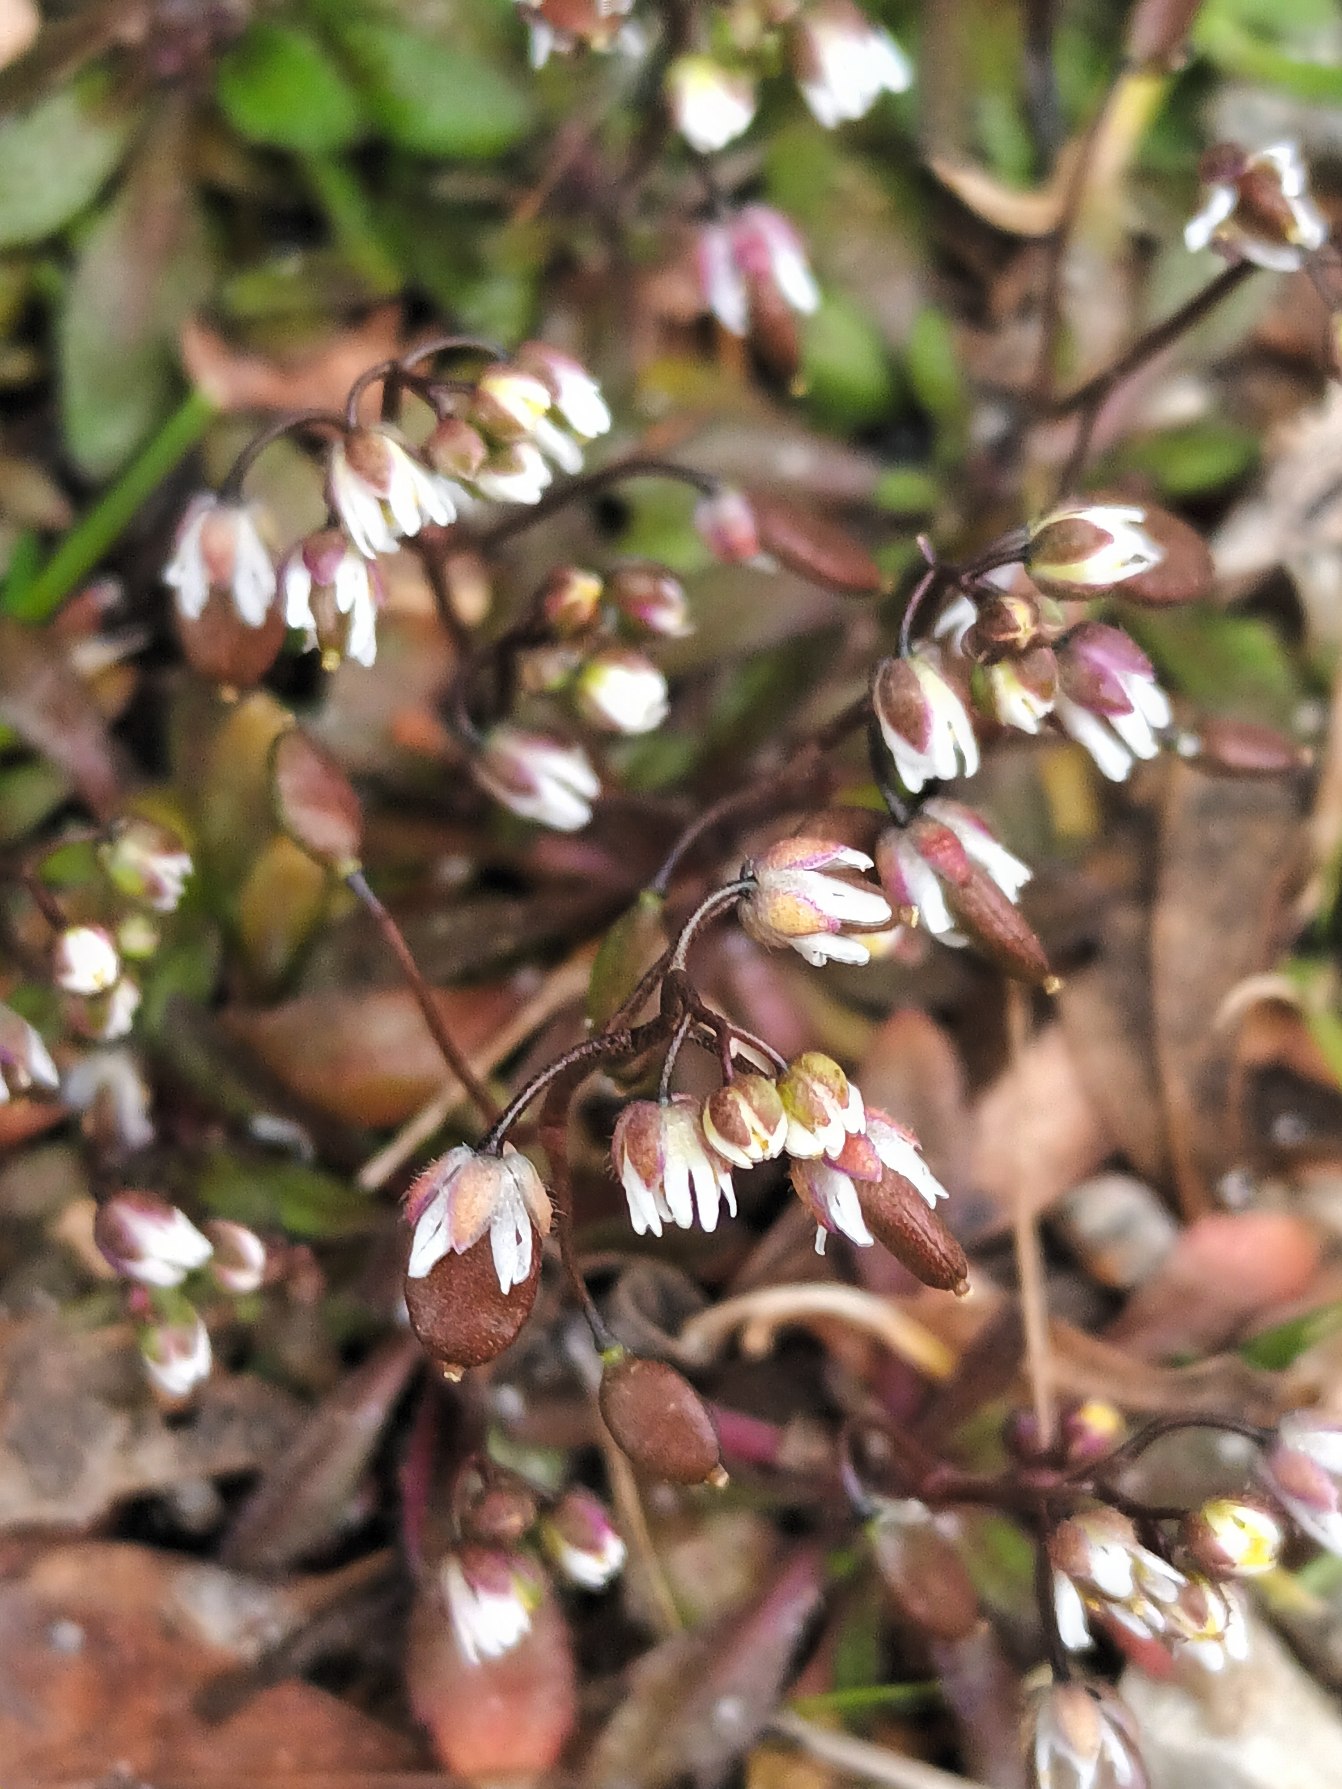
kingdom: Plantae
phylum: Tracheophyta
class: Magnoliopsida
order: Brassicales
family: Brassicaceae
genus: Draba
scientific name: Draba verna
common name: Vår-gæslingeblomst
